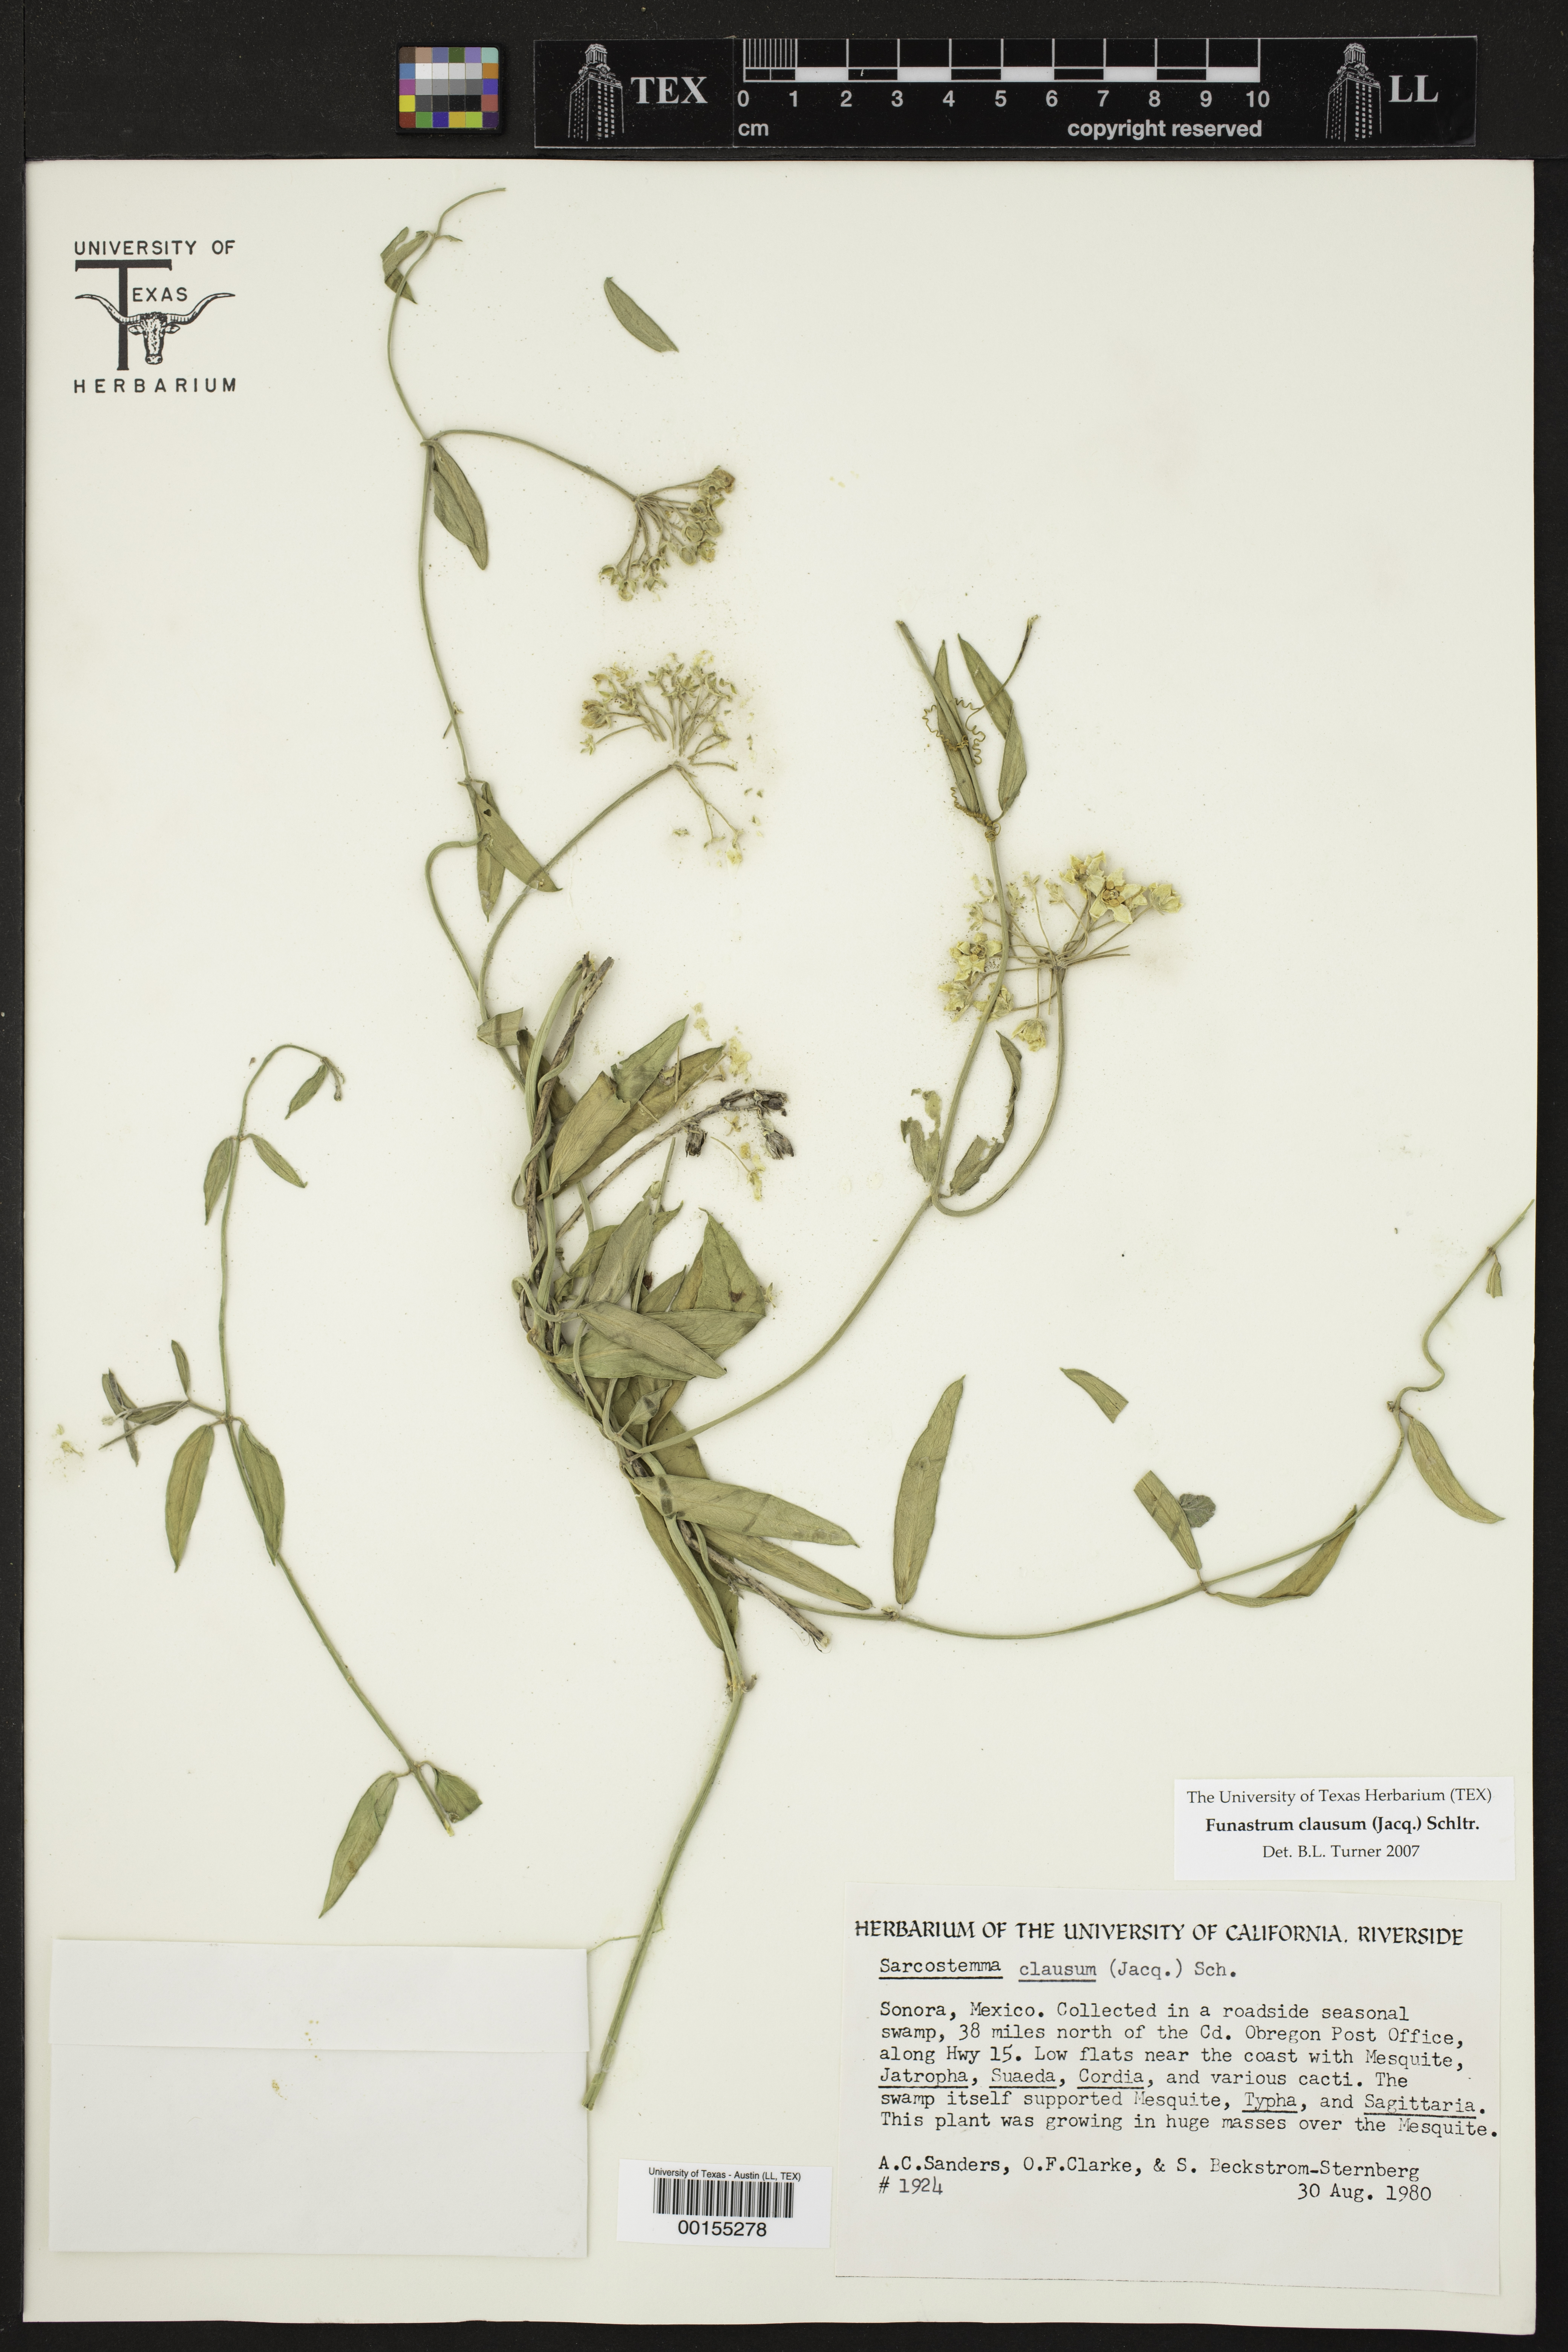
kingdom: Plantae
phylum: Tracheophyta
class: Magnoliopsida
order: Gentianales
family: Apocynaceae
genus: Funastrum
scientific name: Funastrum clausum
